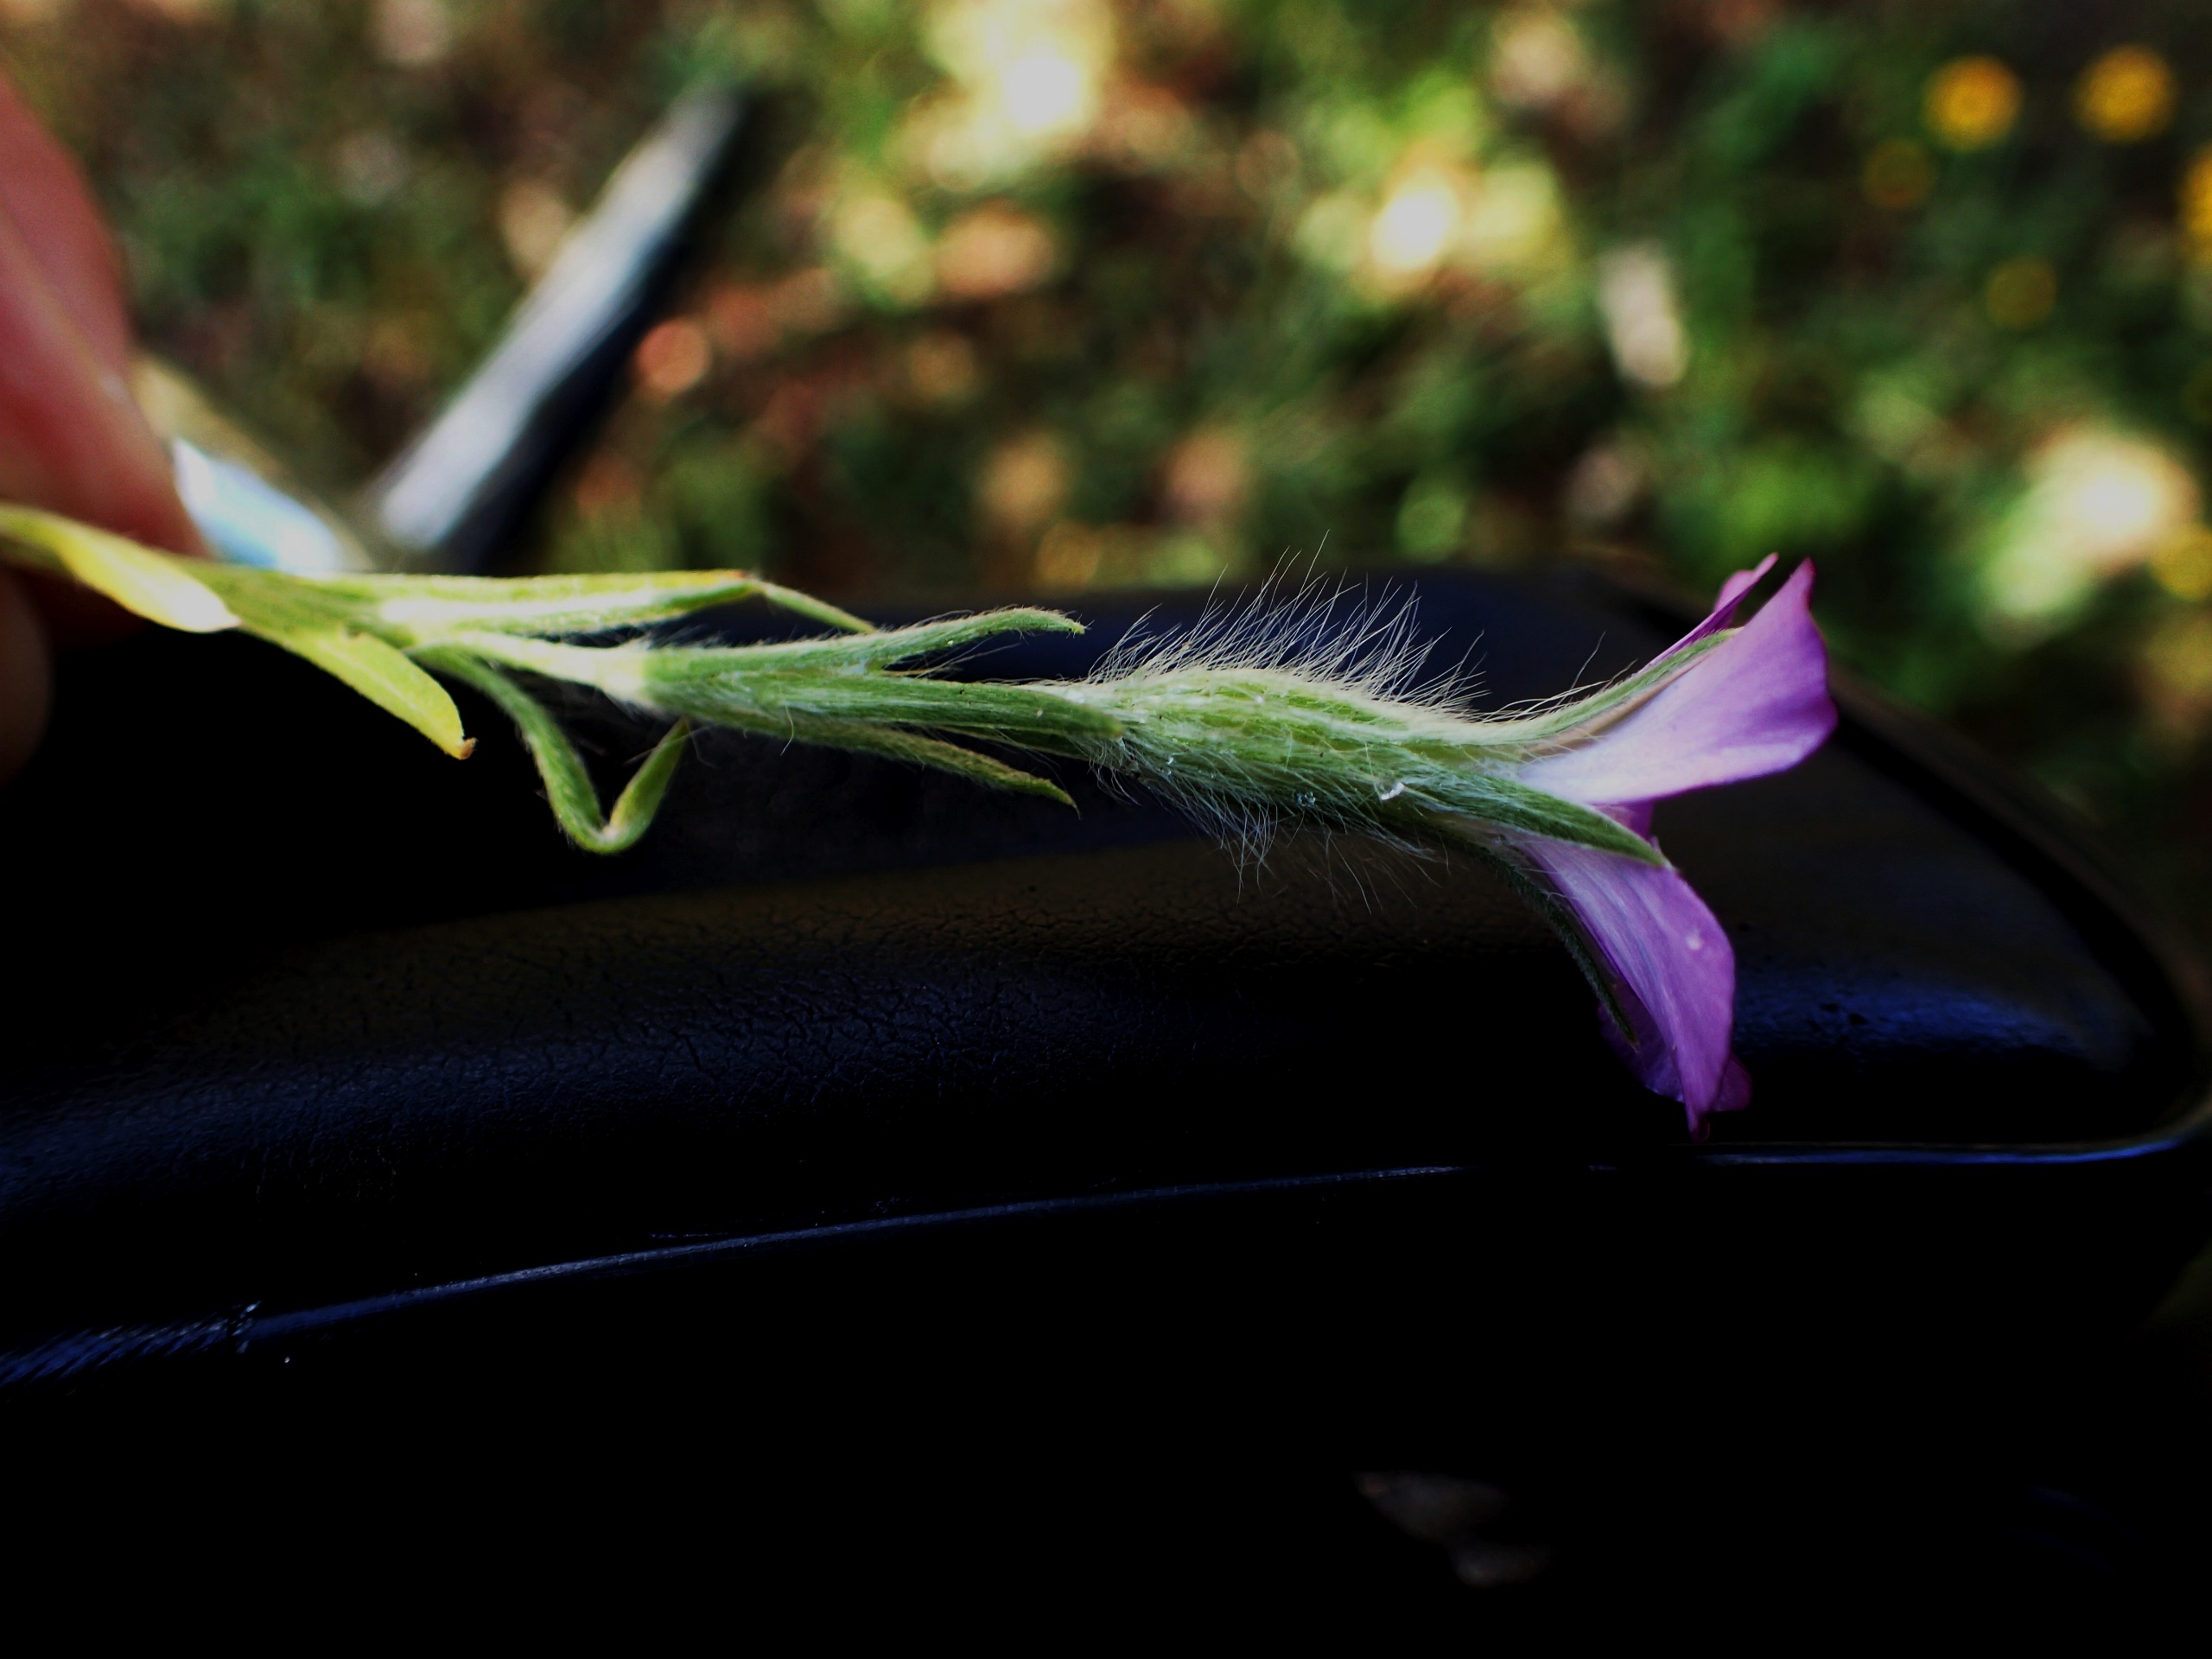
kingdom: Plantae
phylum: Tracheophyta
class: Magnoliopsida
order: Caryophyllales
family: Caryophyllaceae
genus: Agrostemma
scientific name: Agrostemma githago
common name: Klinte
